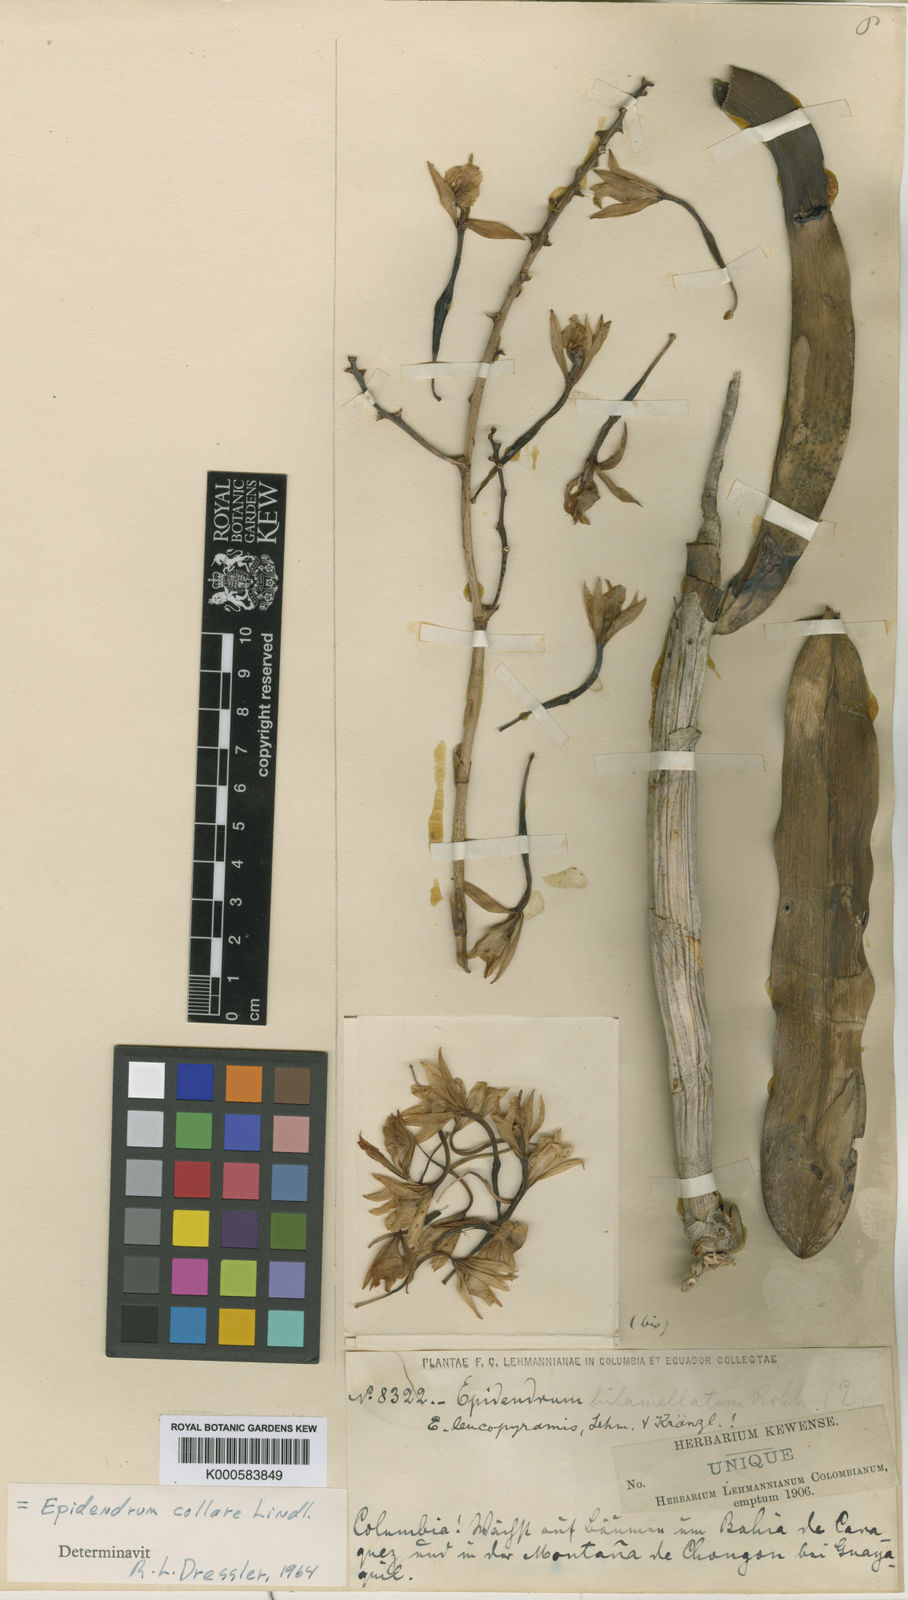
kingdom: Plantae
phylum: Tracheophyta
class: Liliopsida
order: Asparagales
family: Orchidaceae
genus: Epidendrum
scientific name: Epidendrum bracteolatum
